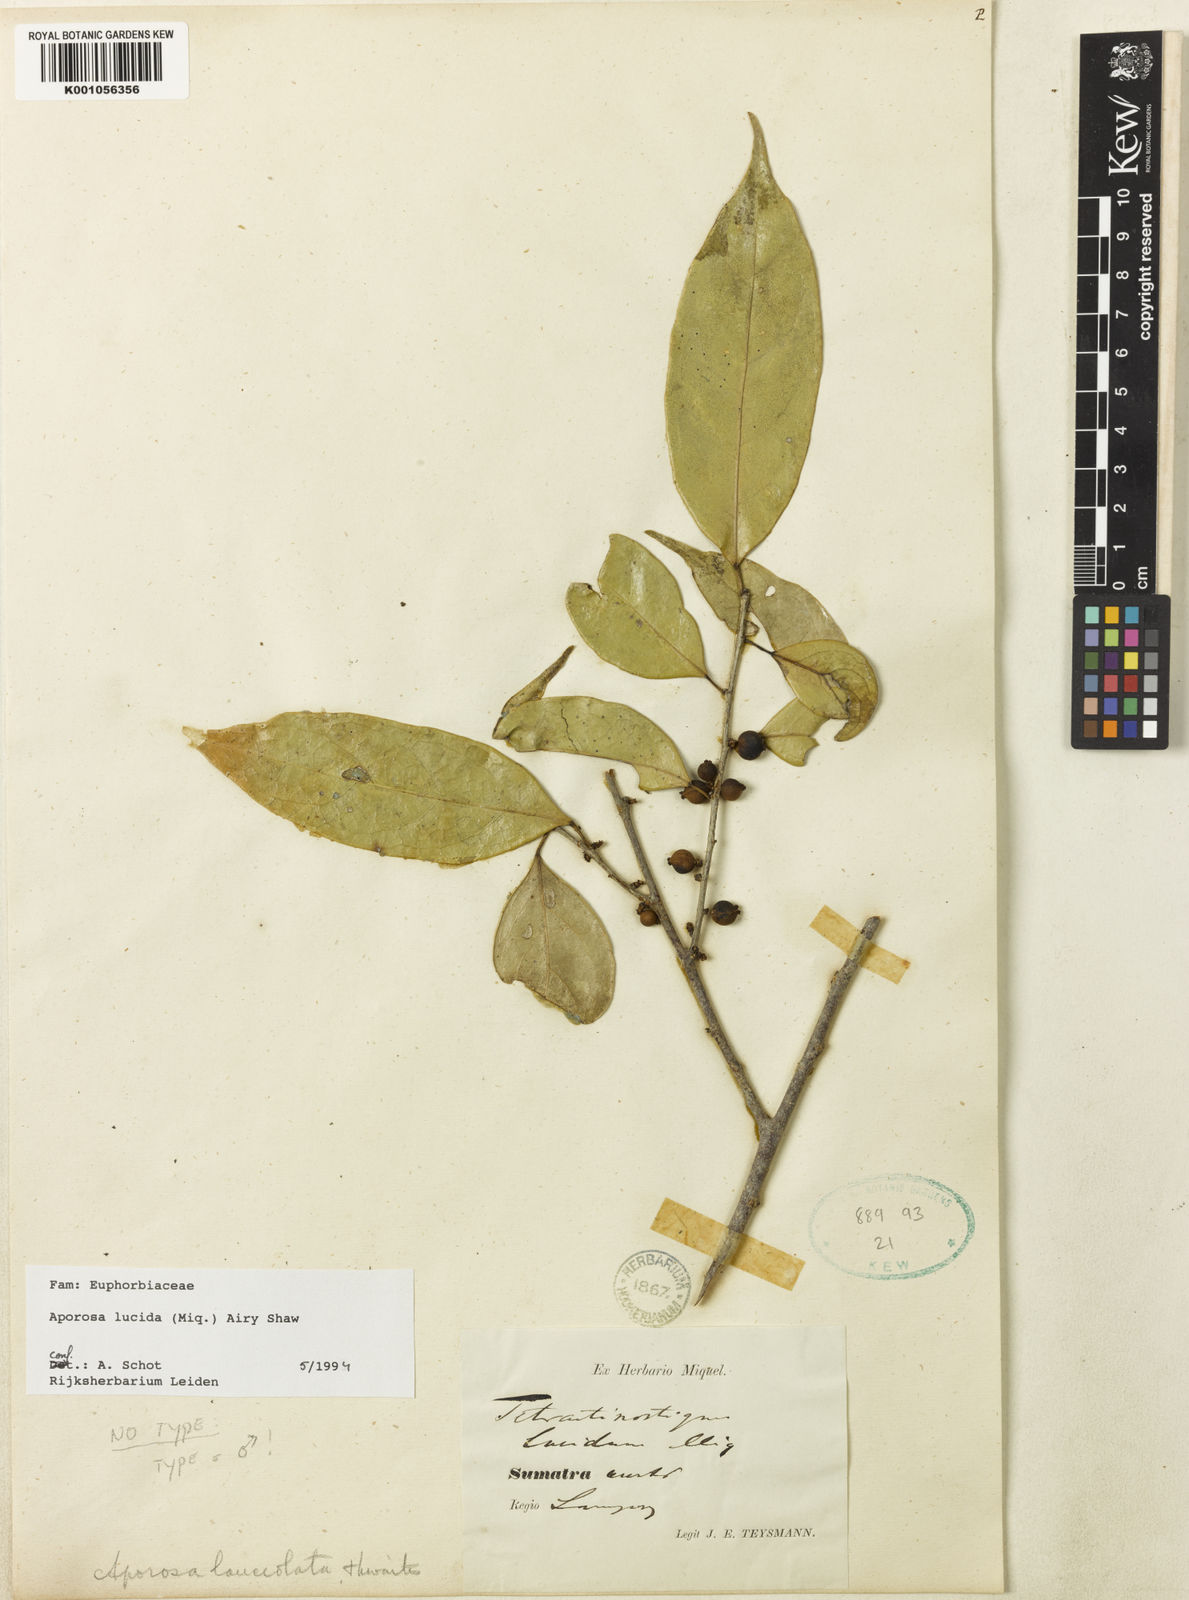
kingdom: Plantae
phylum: Tracheophyta
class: Magnoliopsida
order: Malpighiales
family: Phyllanthaceae
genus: Aporosa
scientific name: Aporosa lucida
